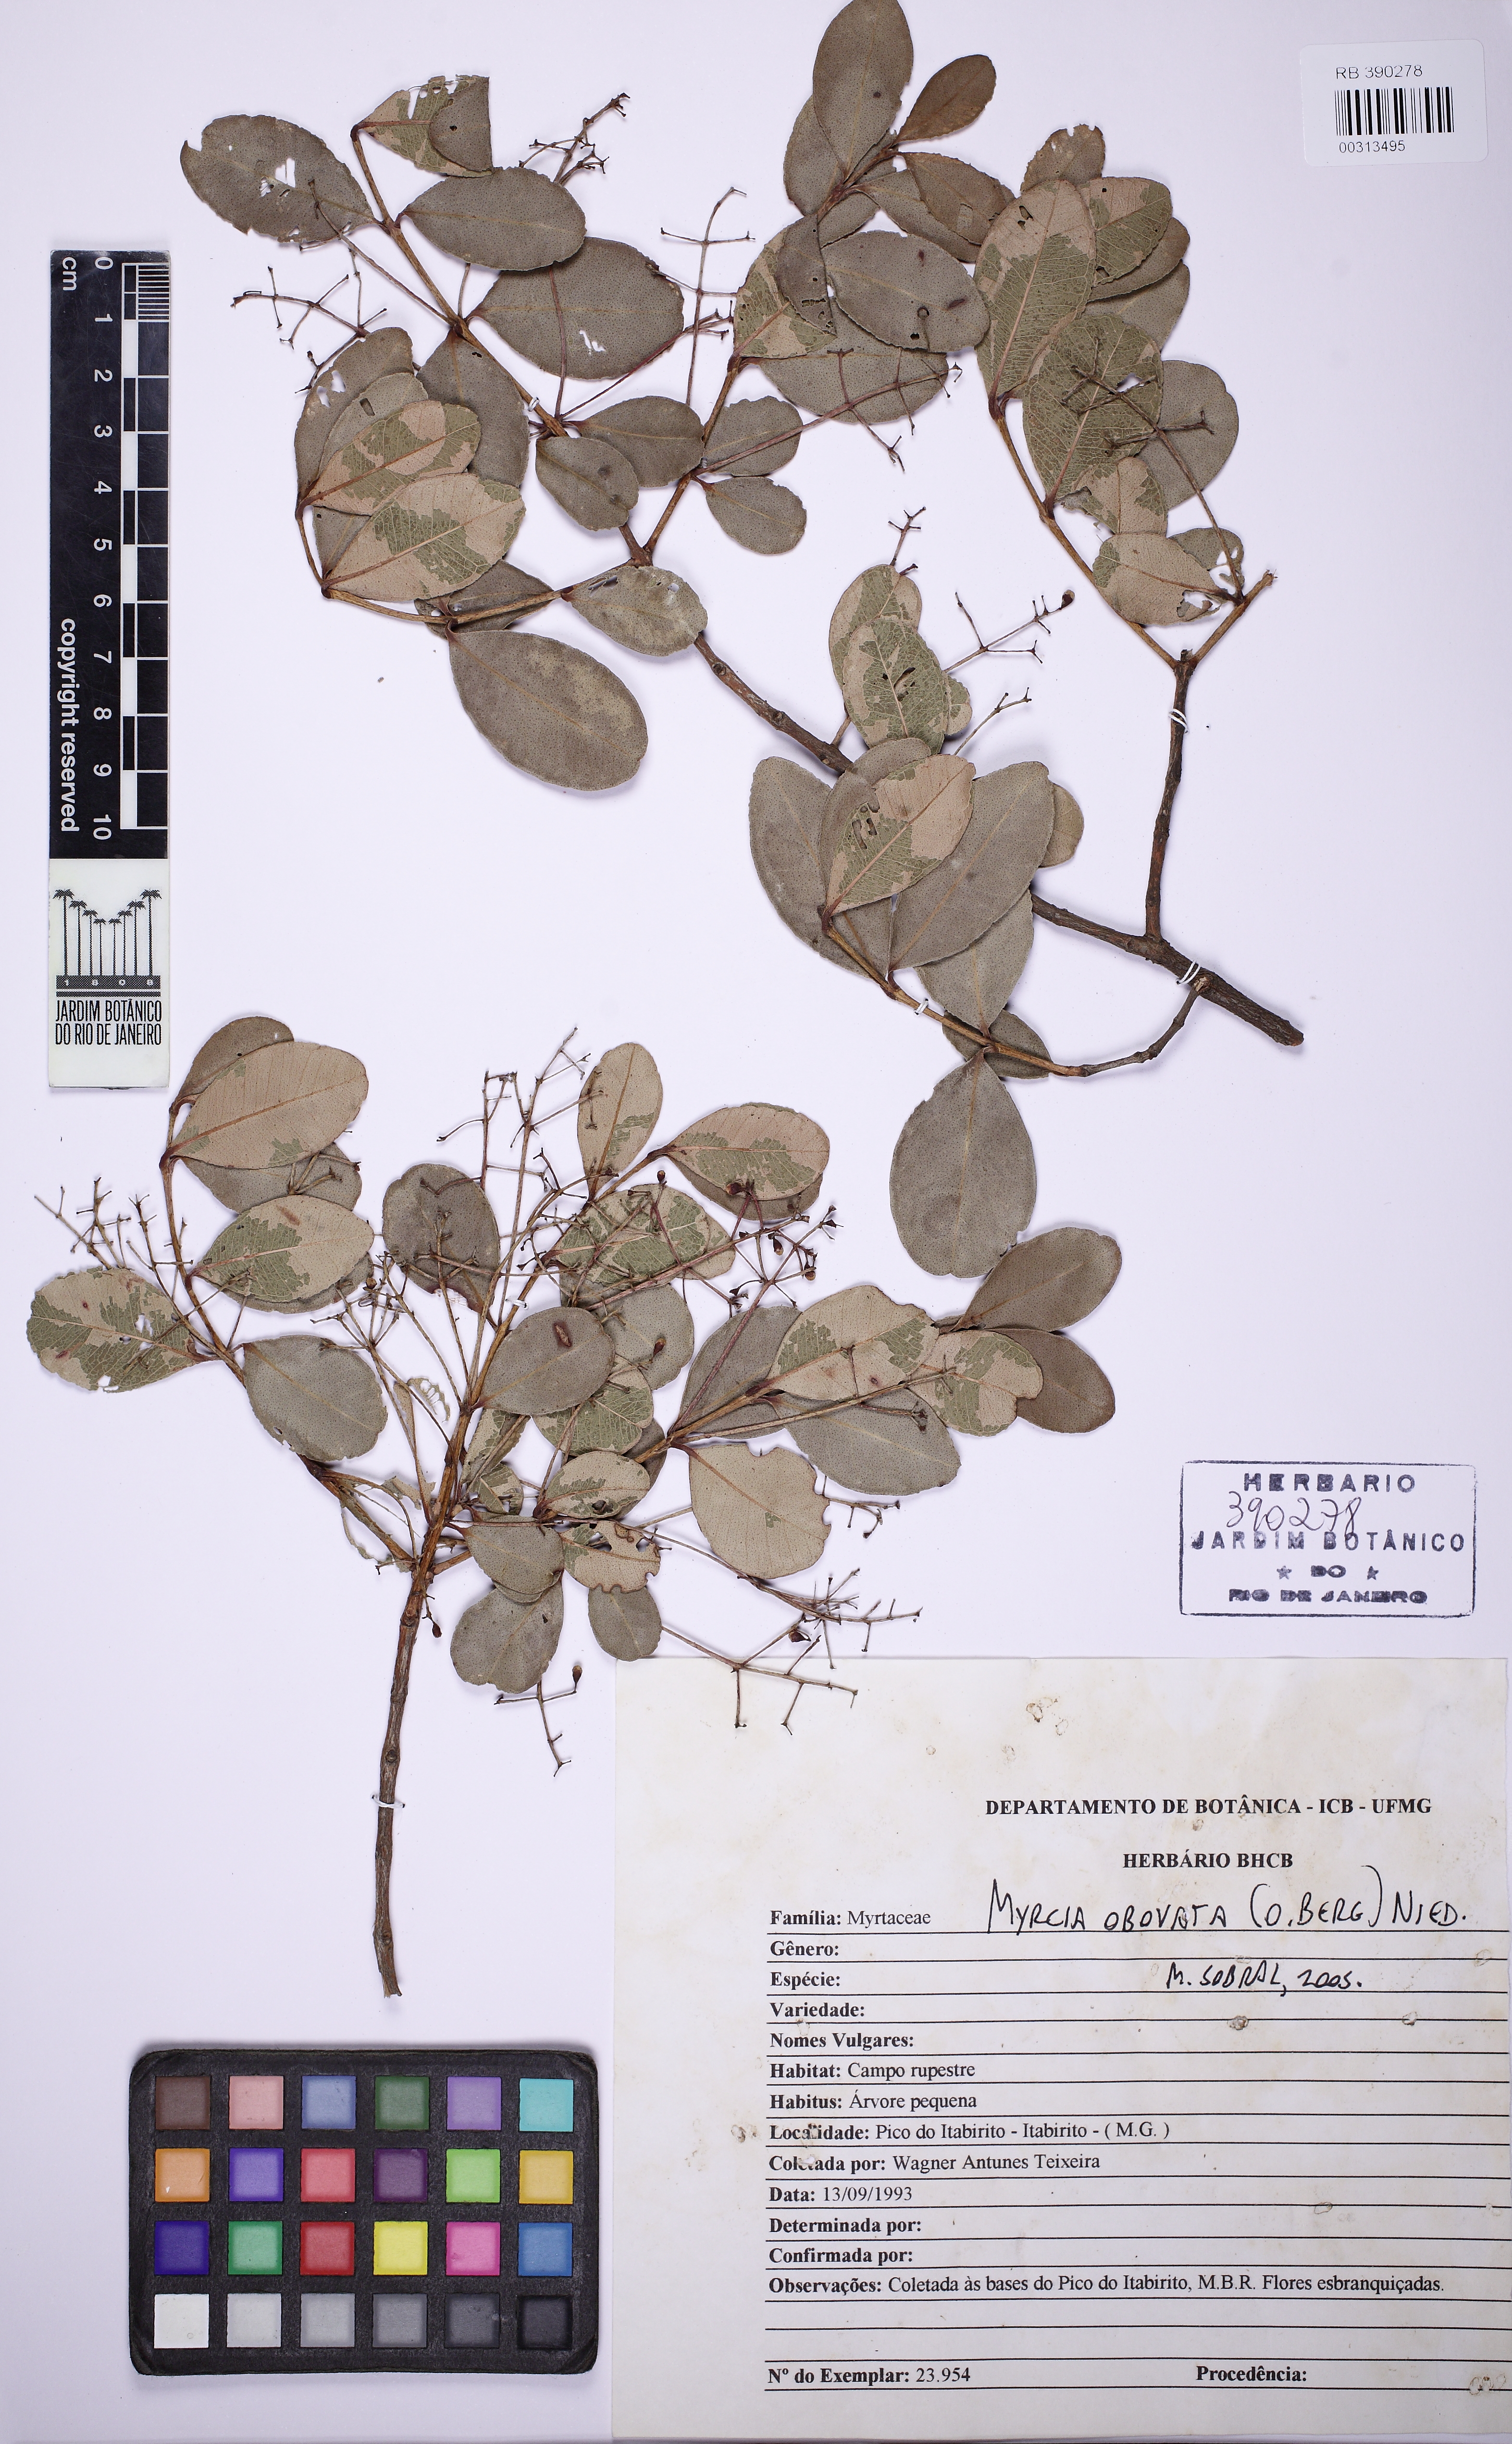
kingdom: Plantae
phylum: Tracheophyta
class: Magnoliopsida
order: Myrtales
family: Myrtaceae
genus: Myrcia
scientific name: Myrcia obovata
